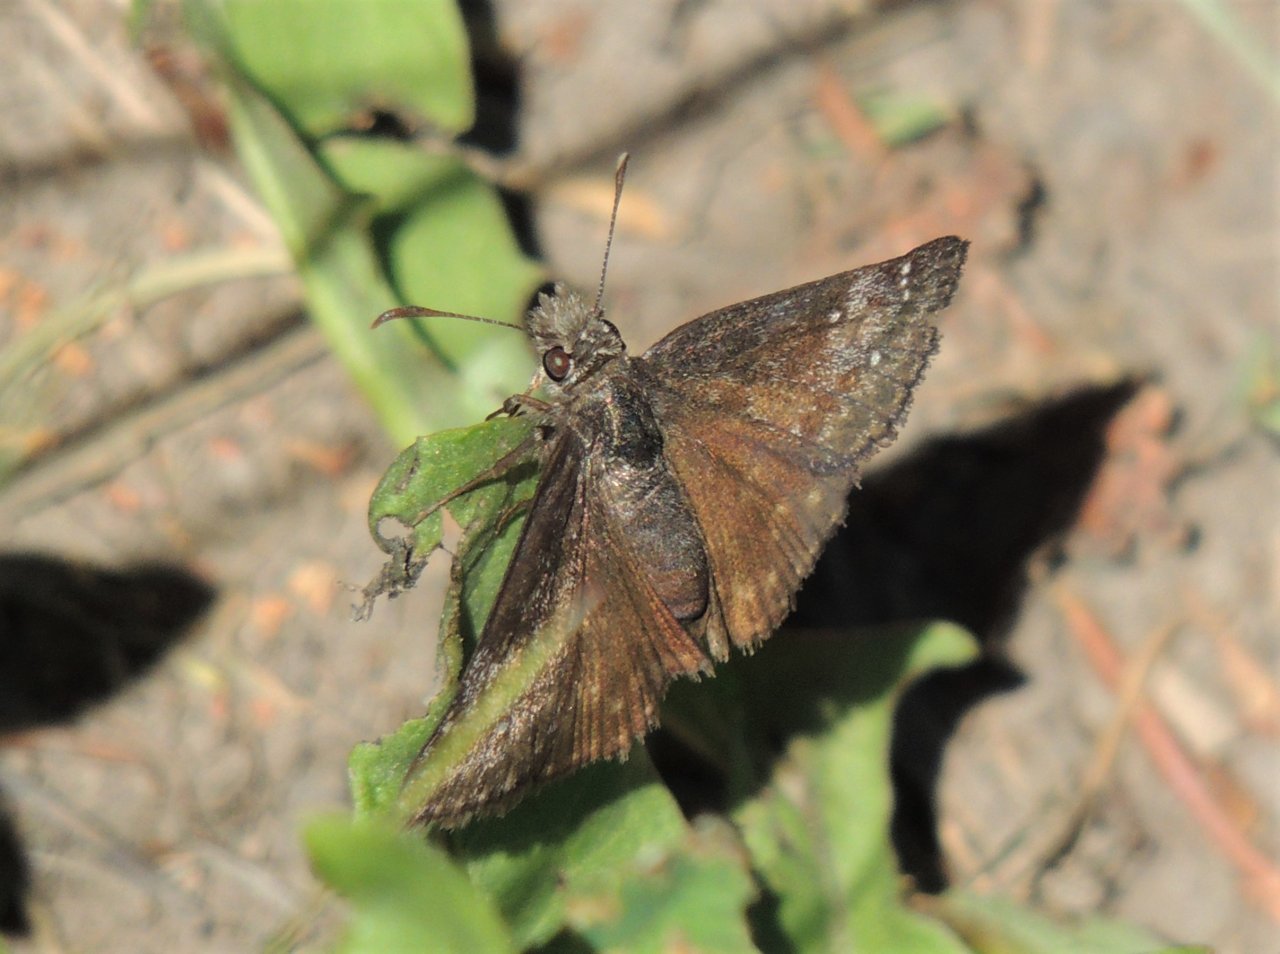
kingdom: Animalia
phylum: Arthropoda
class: Insecta
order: Lepidoptera
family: Hesperiidae
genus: Gesta
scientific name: Gesta
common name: Persius Duskywing
